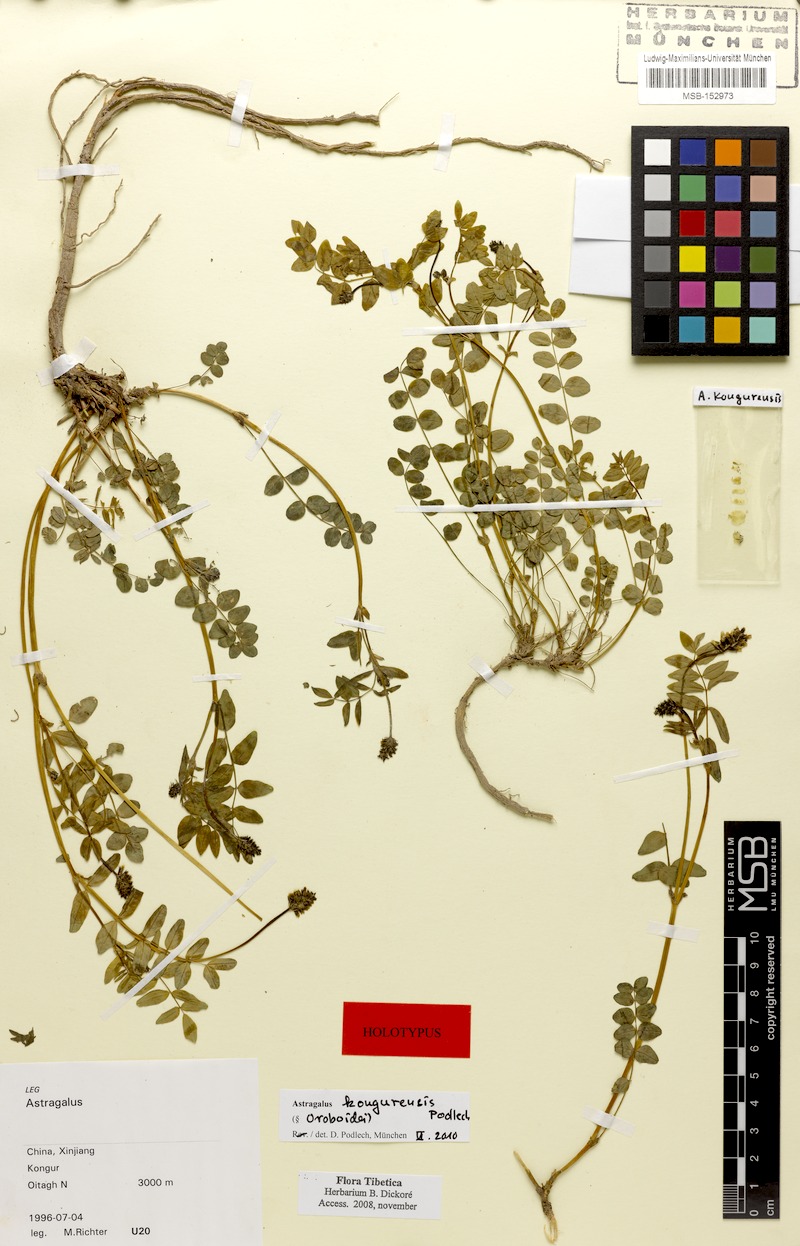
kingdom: Plantae
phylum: Tracheophyta
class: Magnoliopsida
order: Fabales
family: Fabaceae
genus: Astragalus
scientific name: Astragalus kongurensis
